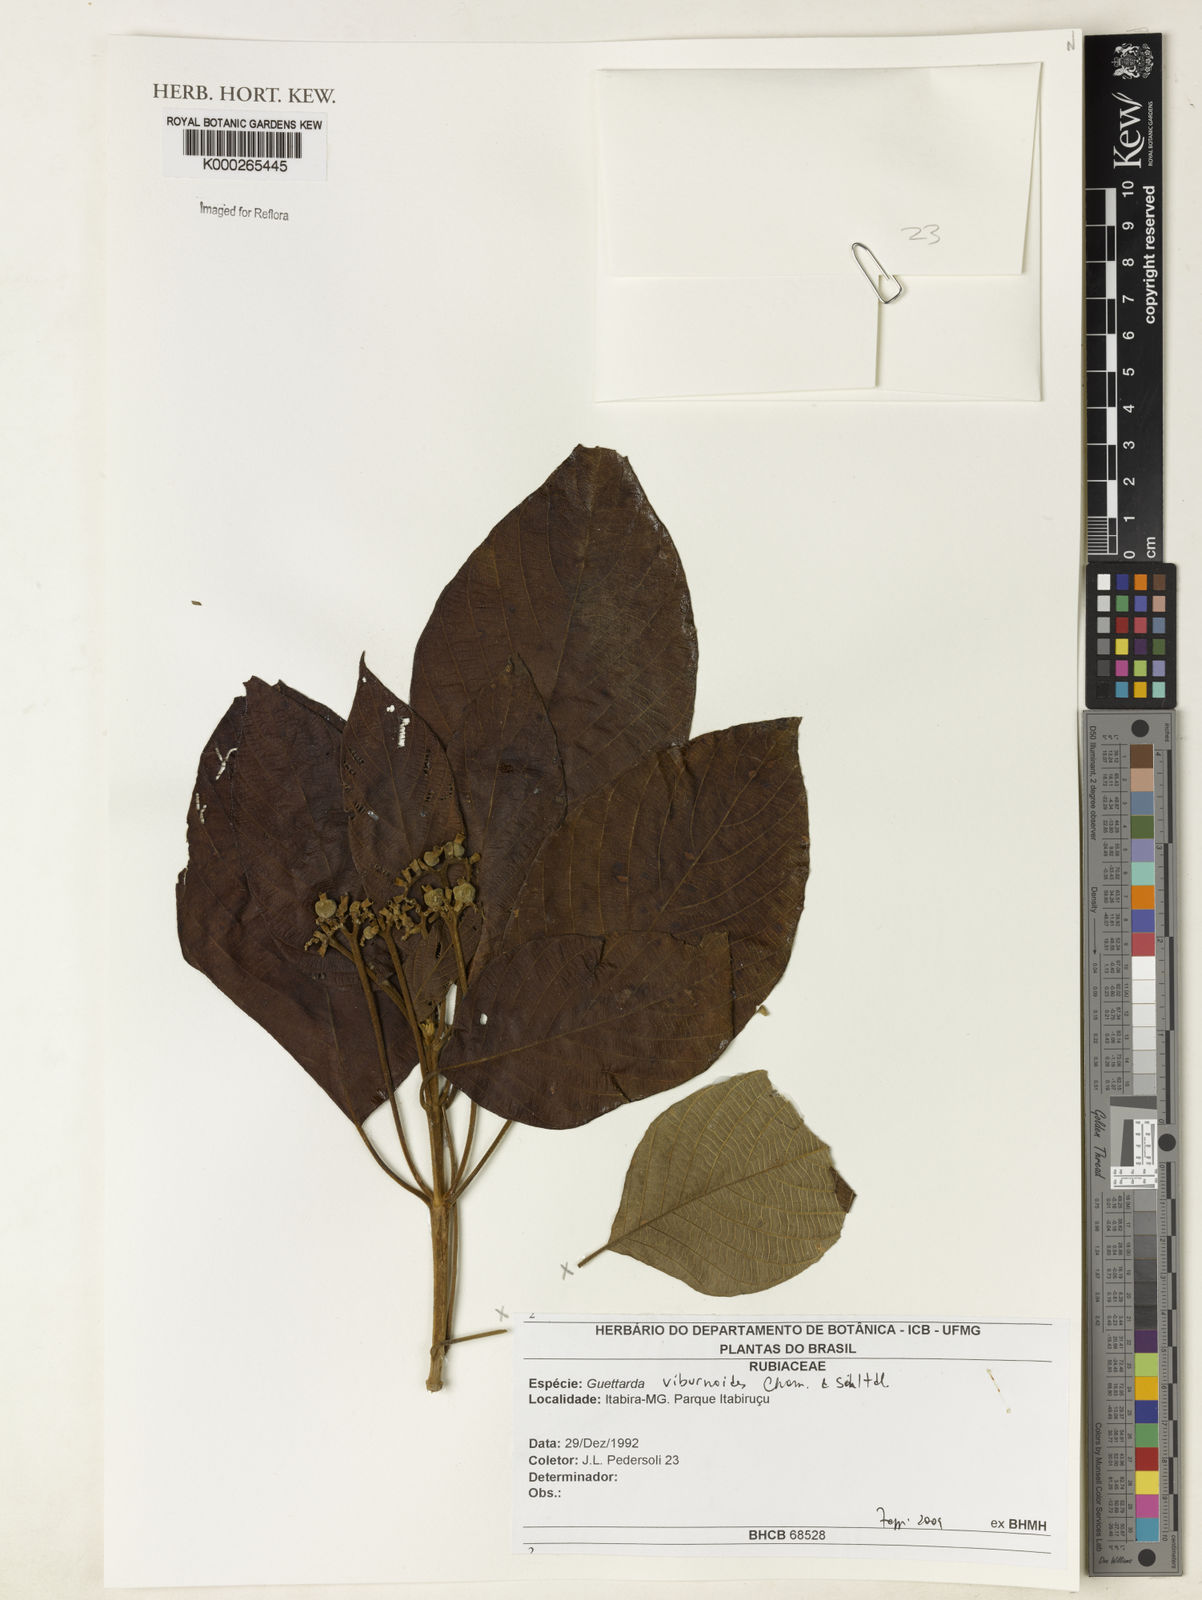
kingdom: Plantae
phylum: Tracheophyta
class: Magnoliopsida
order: Gentianales
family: Rubiaceae
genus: Guettarda
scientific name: Guettarda viburnoides
